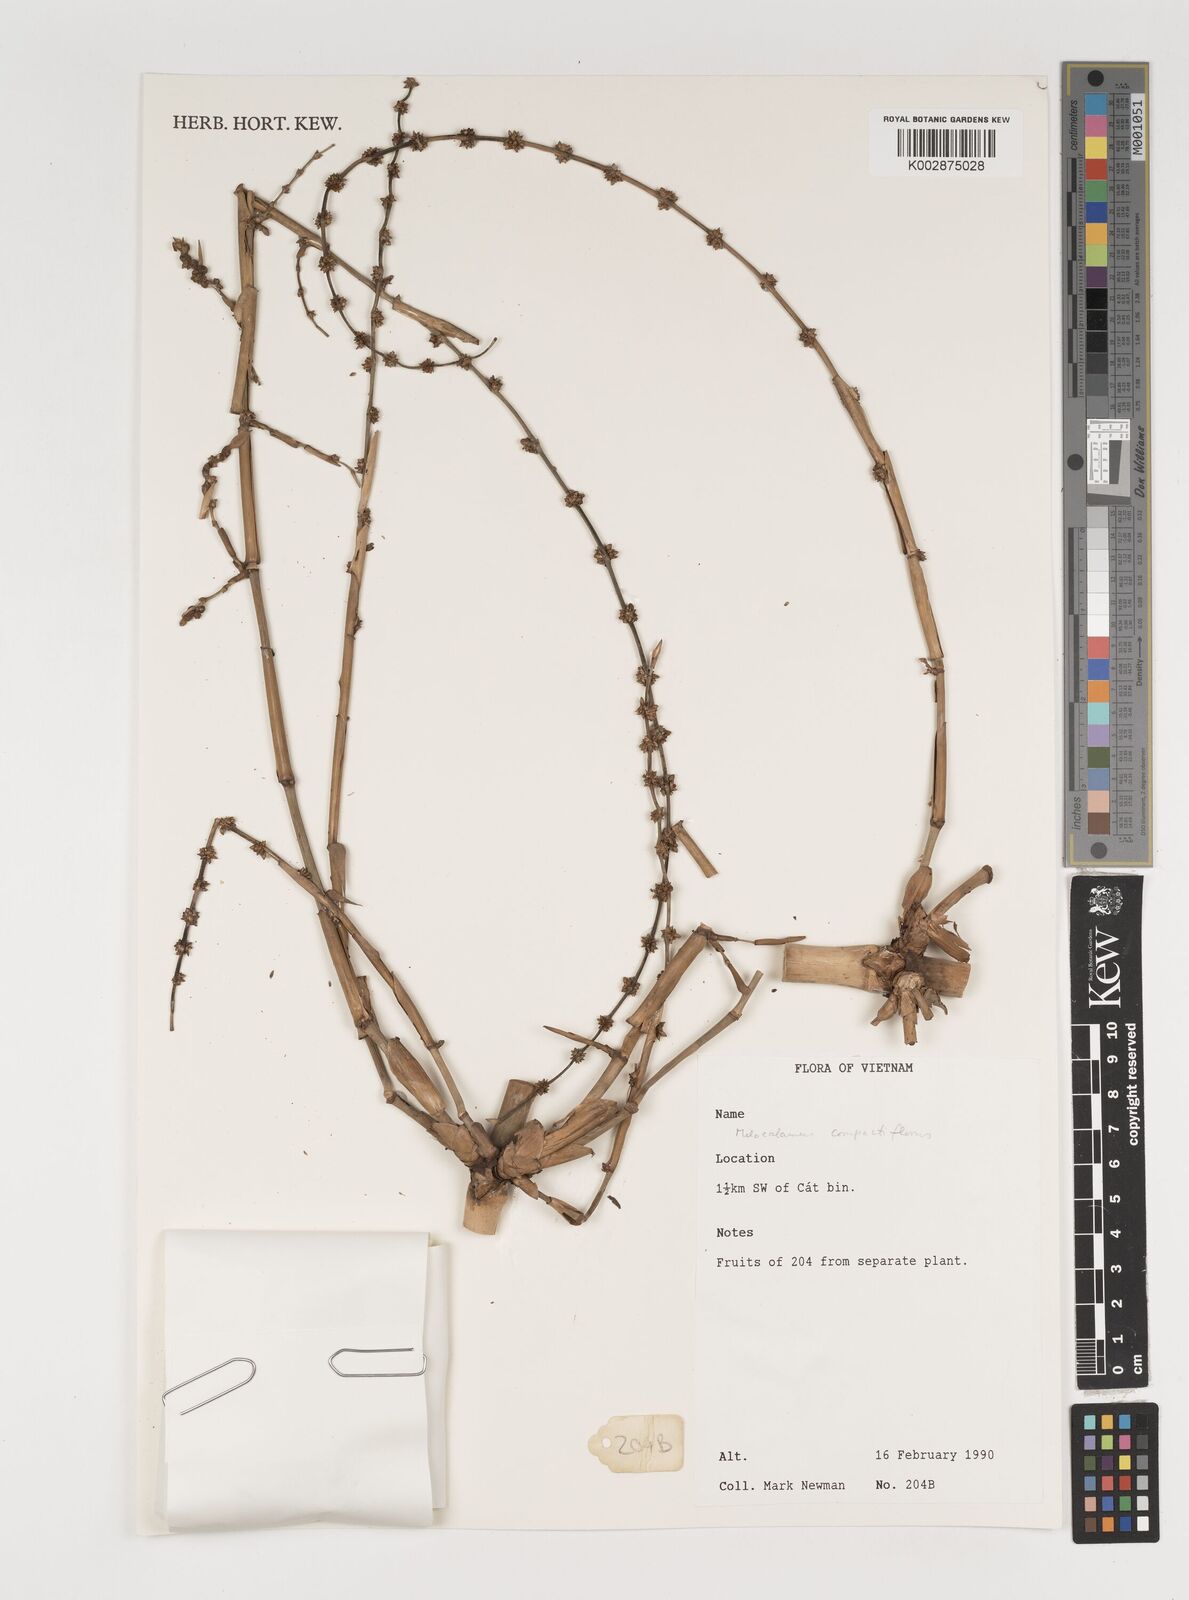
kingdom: Plantae
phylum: Tracheophyta
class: Liliopsida
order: Poales
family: Poaceae
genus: Melocalamus
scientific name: Melocalamus
